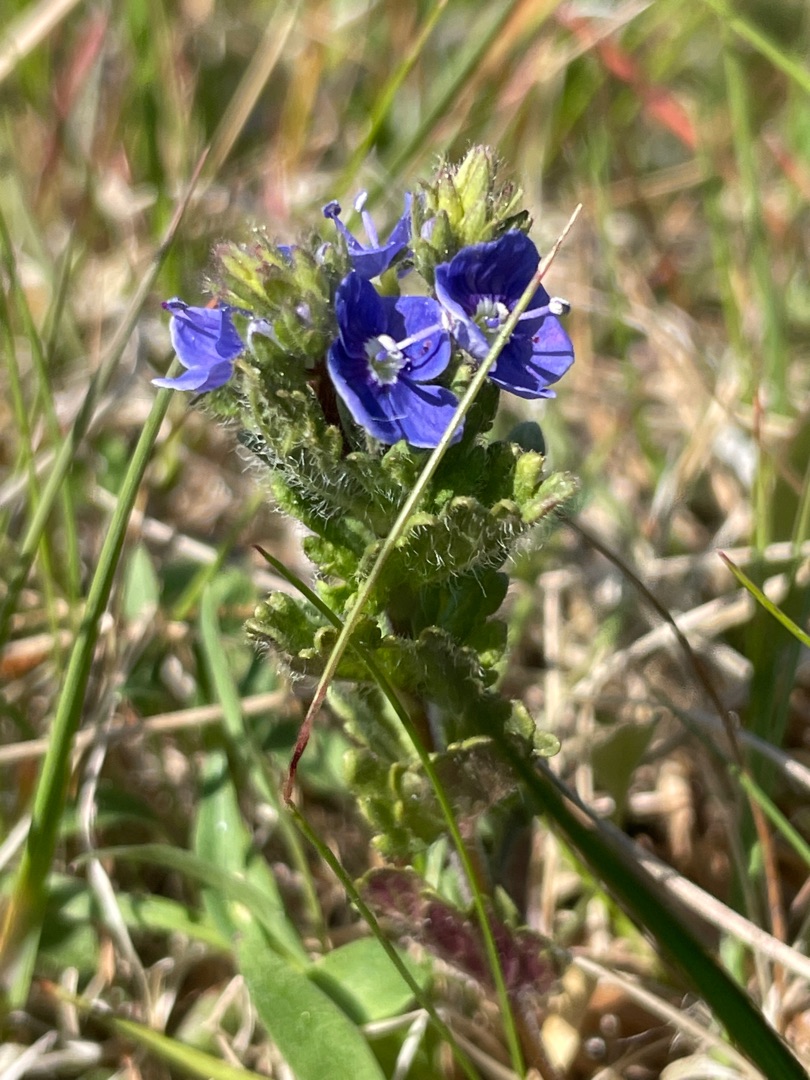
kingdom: Plantae
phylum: Tracheophyta
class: Magnoliopsida
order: Lamiales
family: Plantaginaceae
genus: Veronica
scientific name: Veronica chamaedrys
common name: Tveskægget ærenpris
